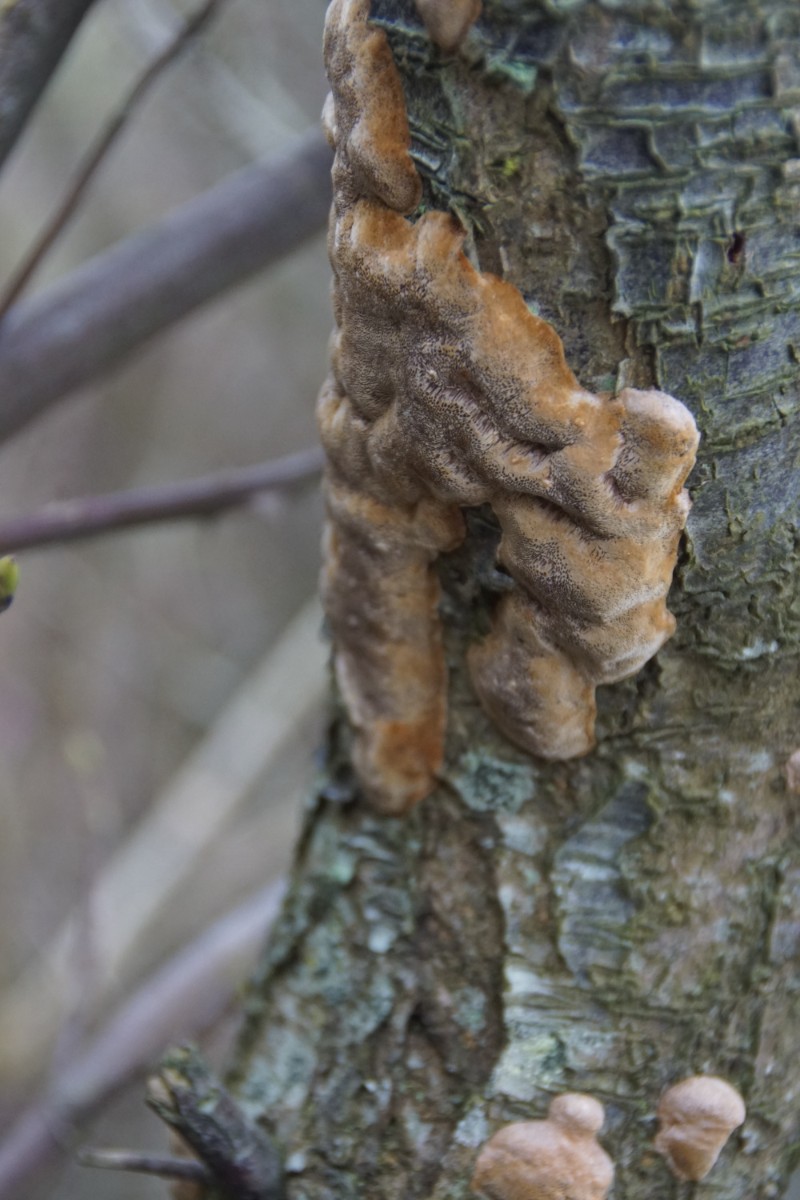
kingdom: Fungi
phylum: Basidiomycota
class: Agaricomycetes
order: Hymenochaetales
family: Hymenochaetaceae
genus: Phellinus
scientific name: Phellinus pomaceus
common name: blomme-ildporesvamp
